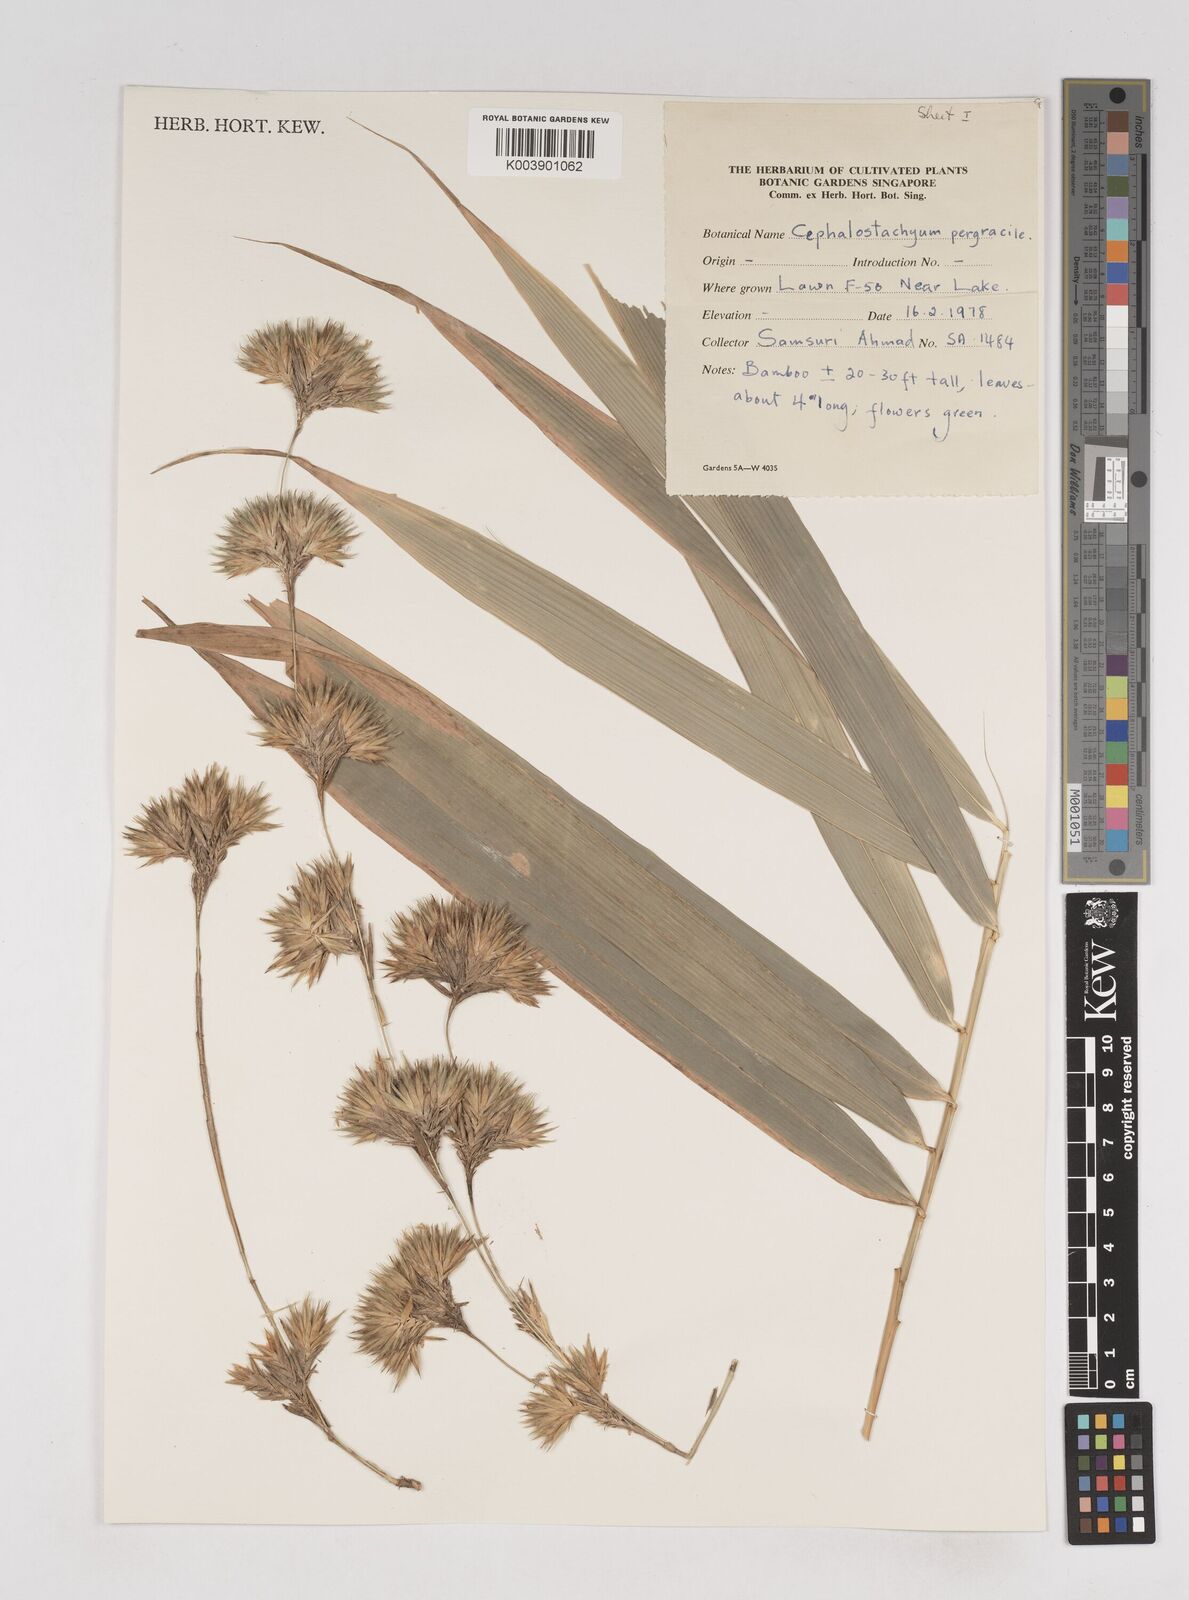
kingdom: Plantae
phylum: Tracheophyta
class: Liliopsida
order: Poales
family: Poaceae
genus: Schizostachyum
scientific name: Schizostachyum pergracile
